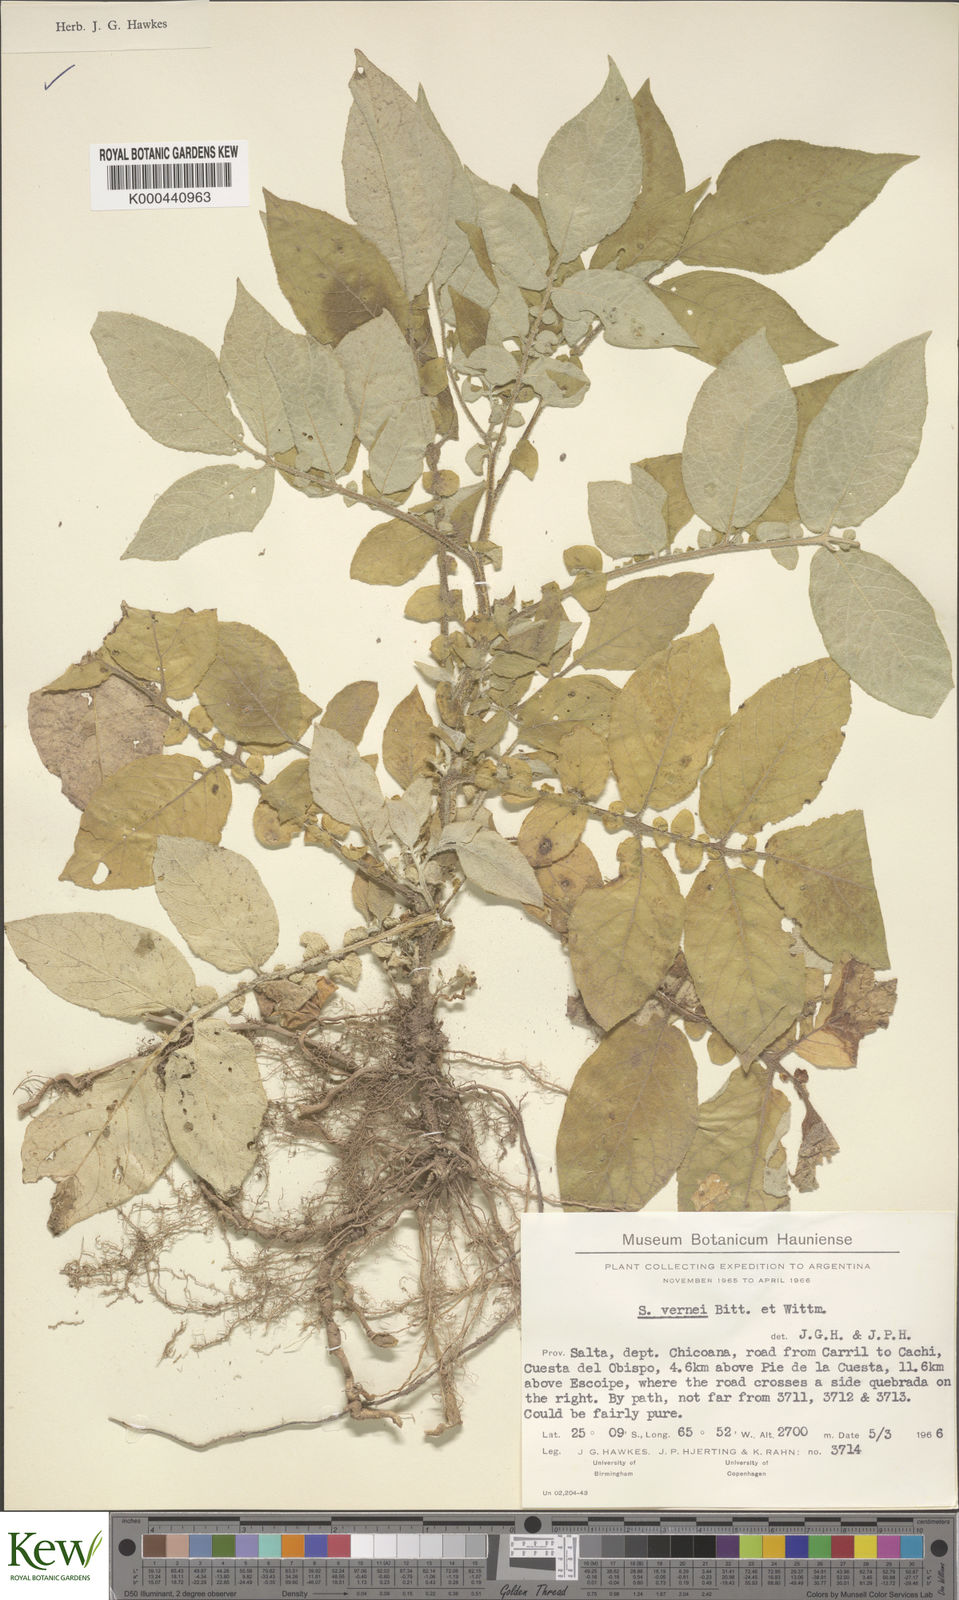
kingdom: Plantae
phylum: Tracheophyta
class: Magnoliopsida
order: Solanales
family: Solanaceae
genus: Solanum
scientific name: Solanum vernei
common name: Purple potato
